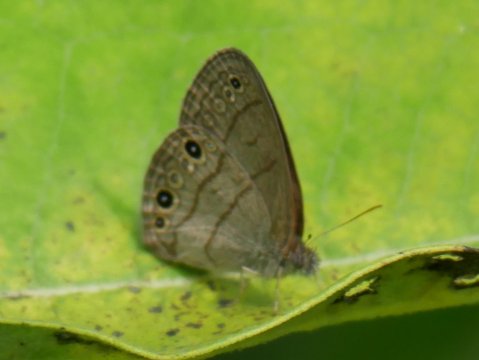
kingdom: Animalia
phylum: Arthropoda
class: Insecta
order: Lepidoptera
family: Nymphalidae
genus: Hermeuptychia
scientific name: Hermeuptychia hermes
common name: Carolina Satyr
